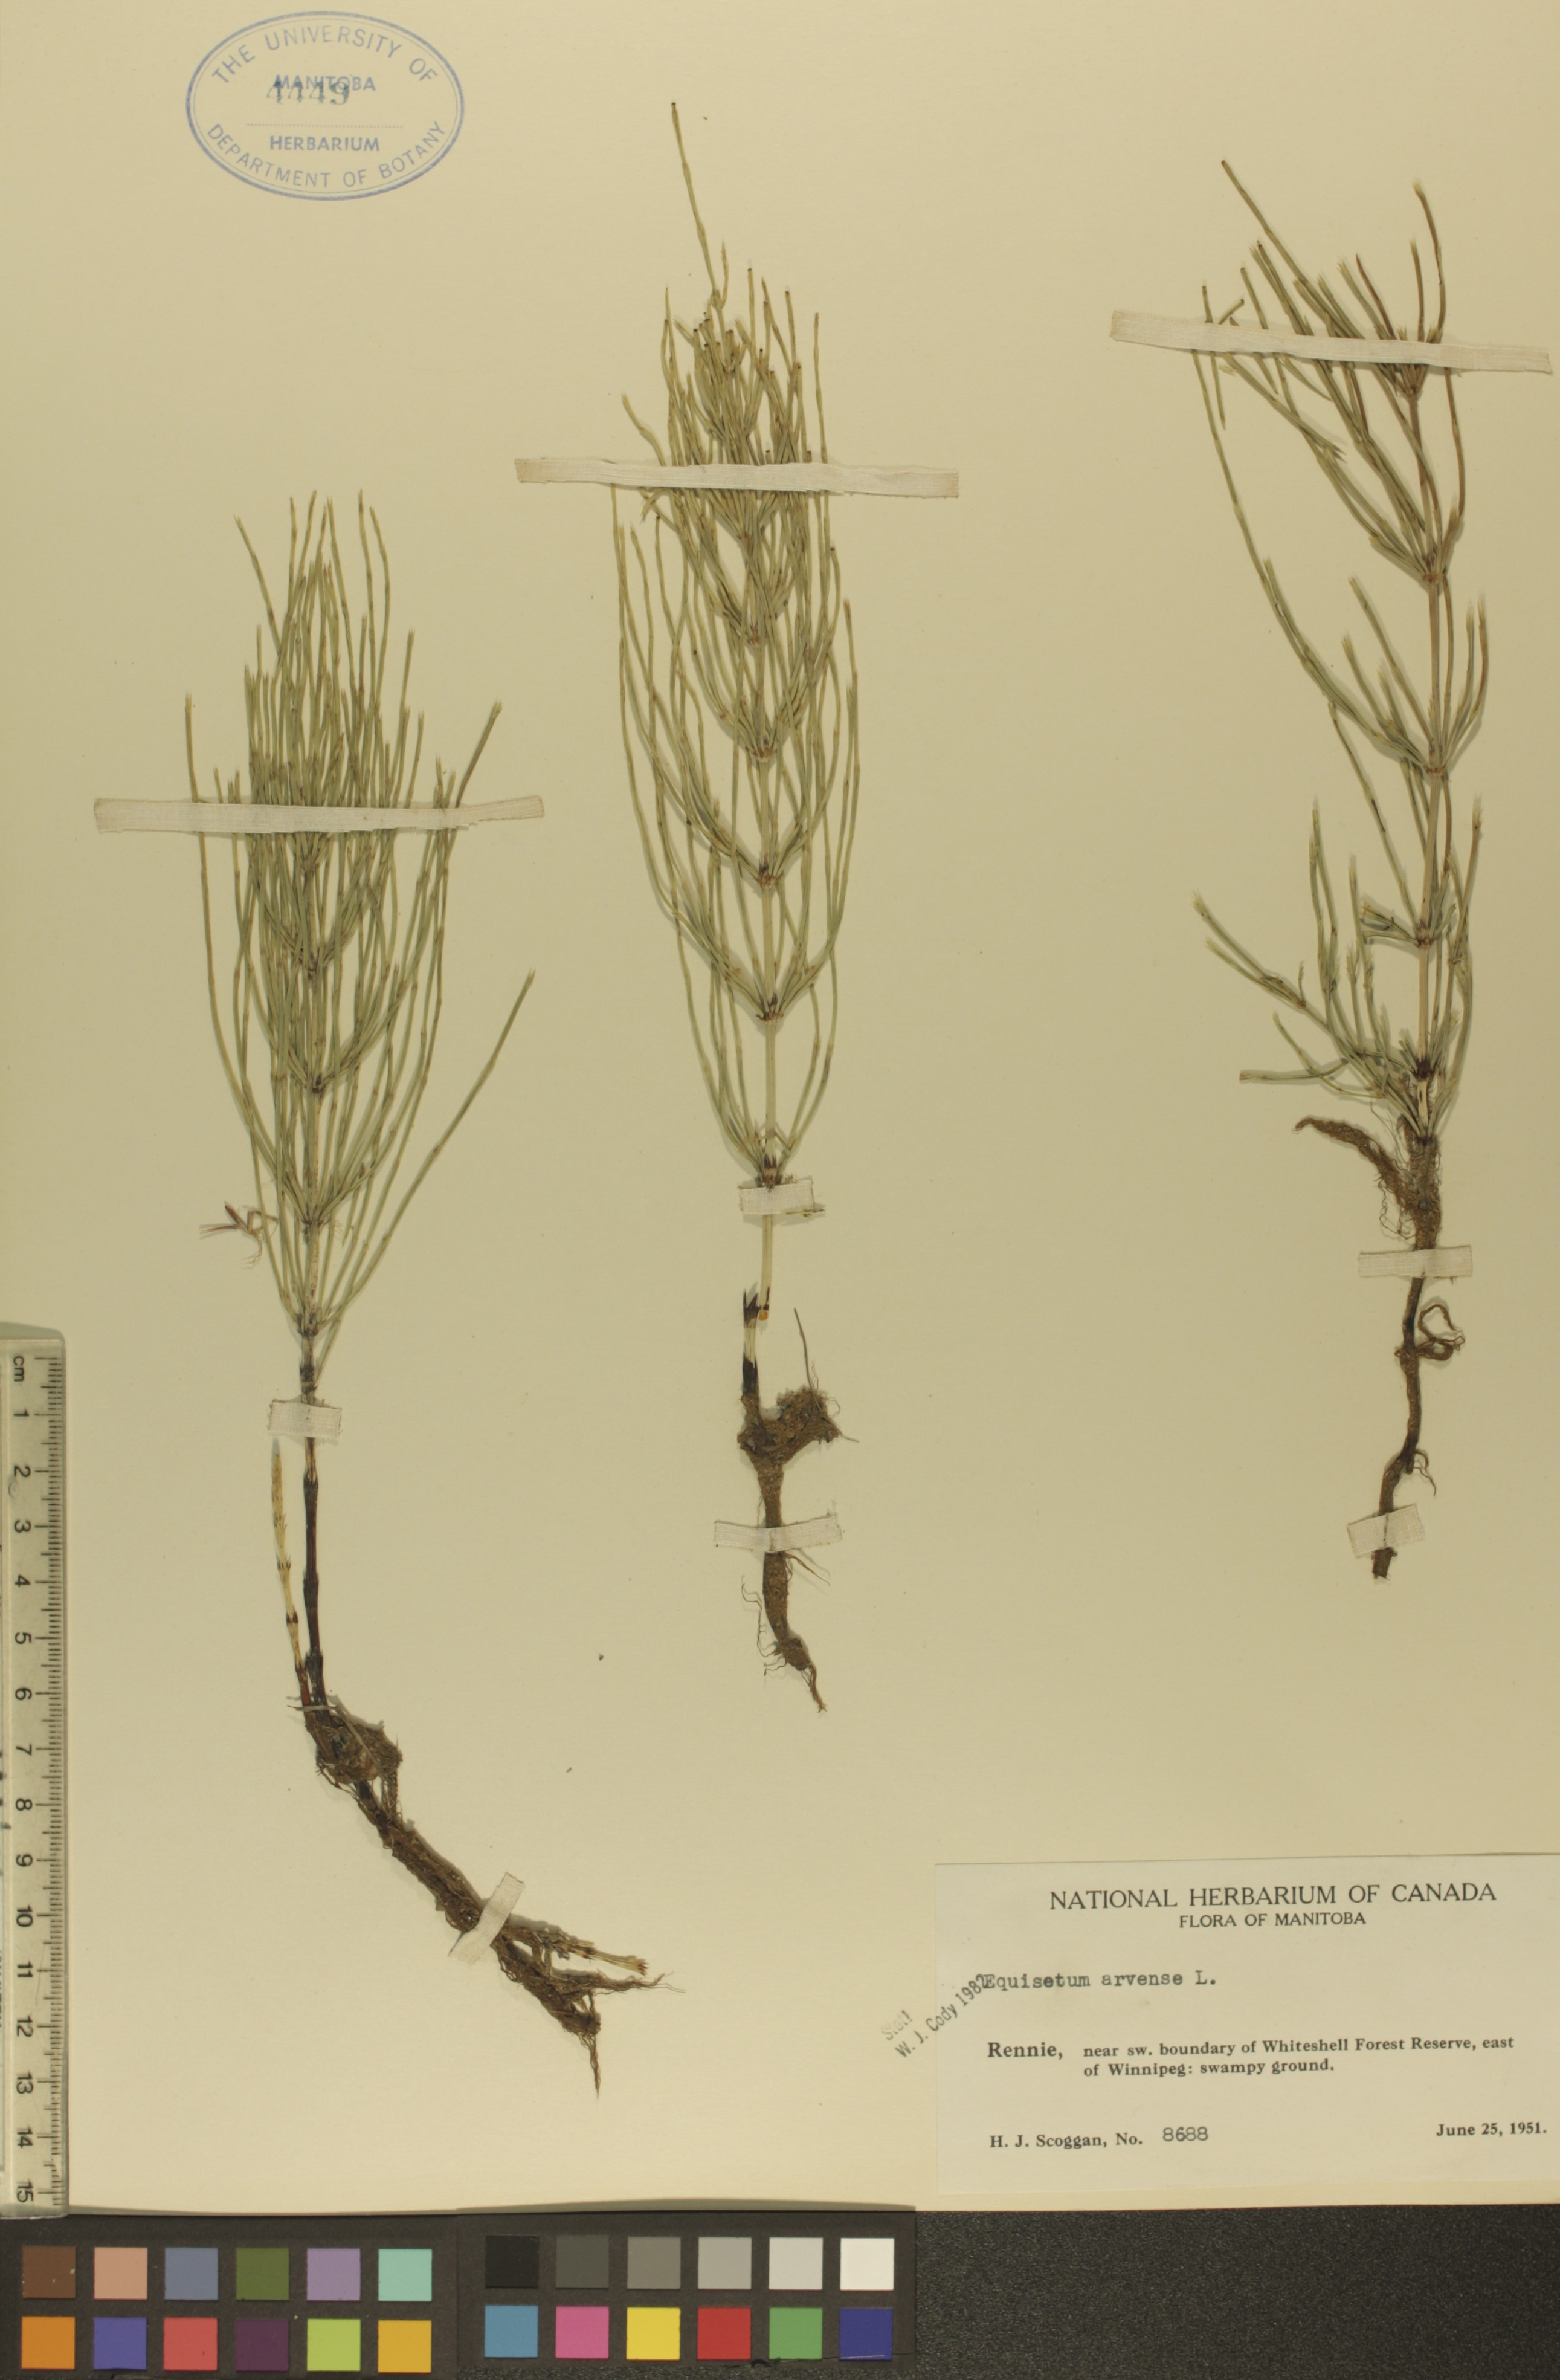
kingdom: Plantae
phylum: Tracheophyta
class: Polypodiopsida
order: Equisetales
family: Equisetaceae
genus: Equisetum
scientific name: Equisetum arvense
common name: Field horsetail
